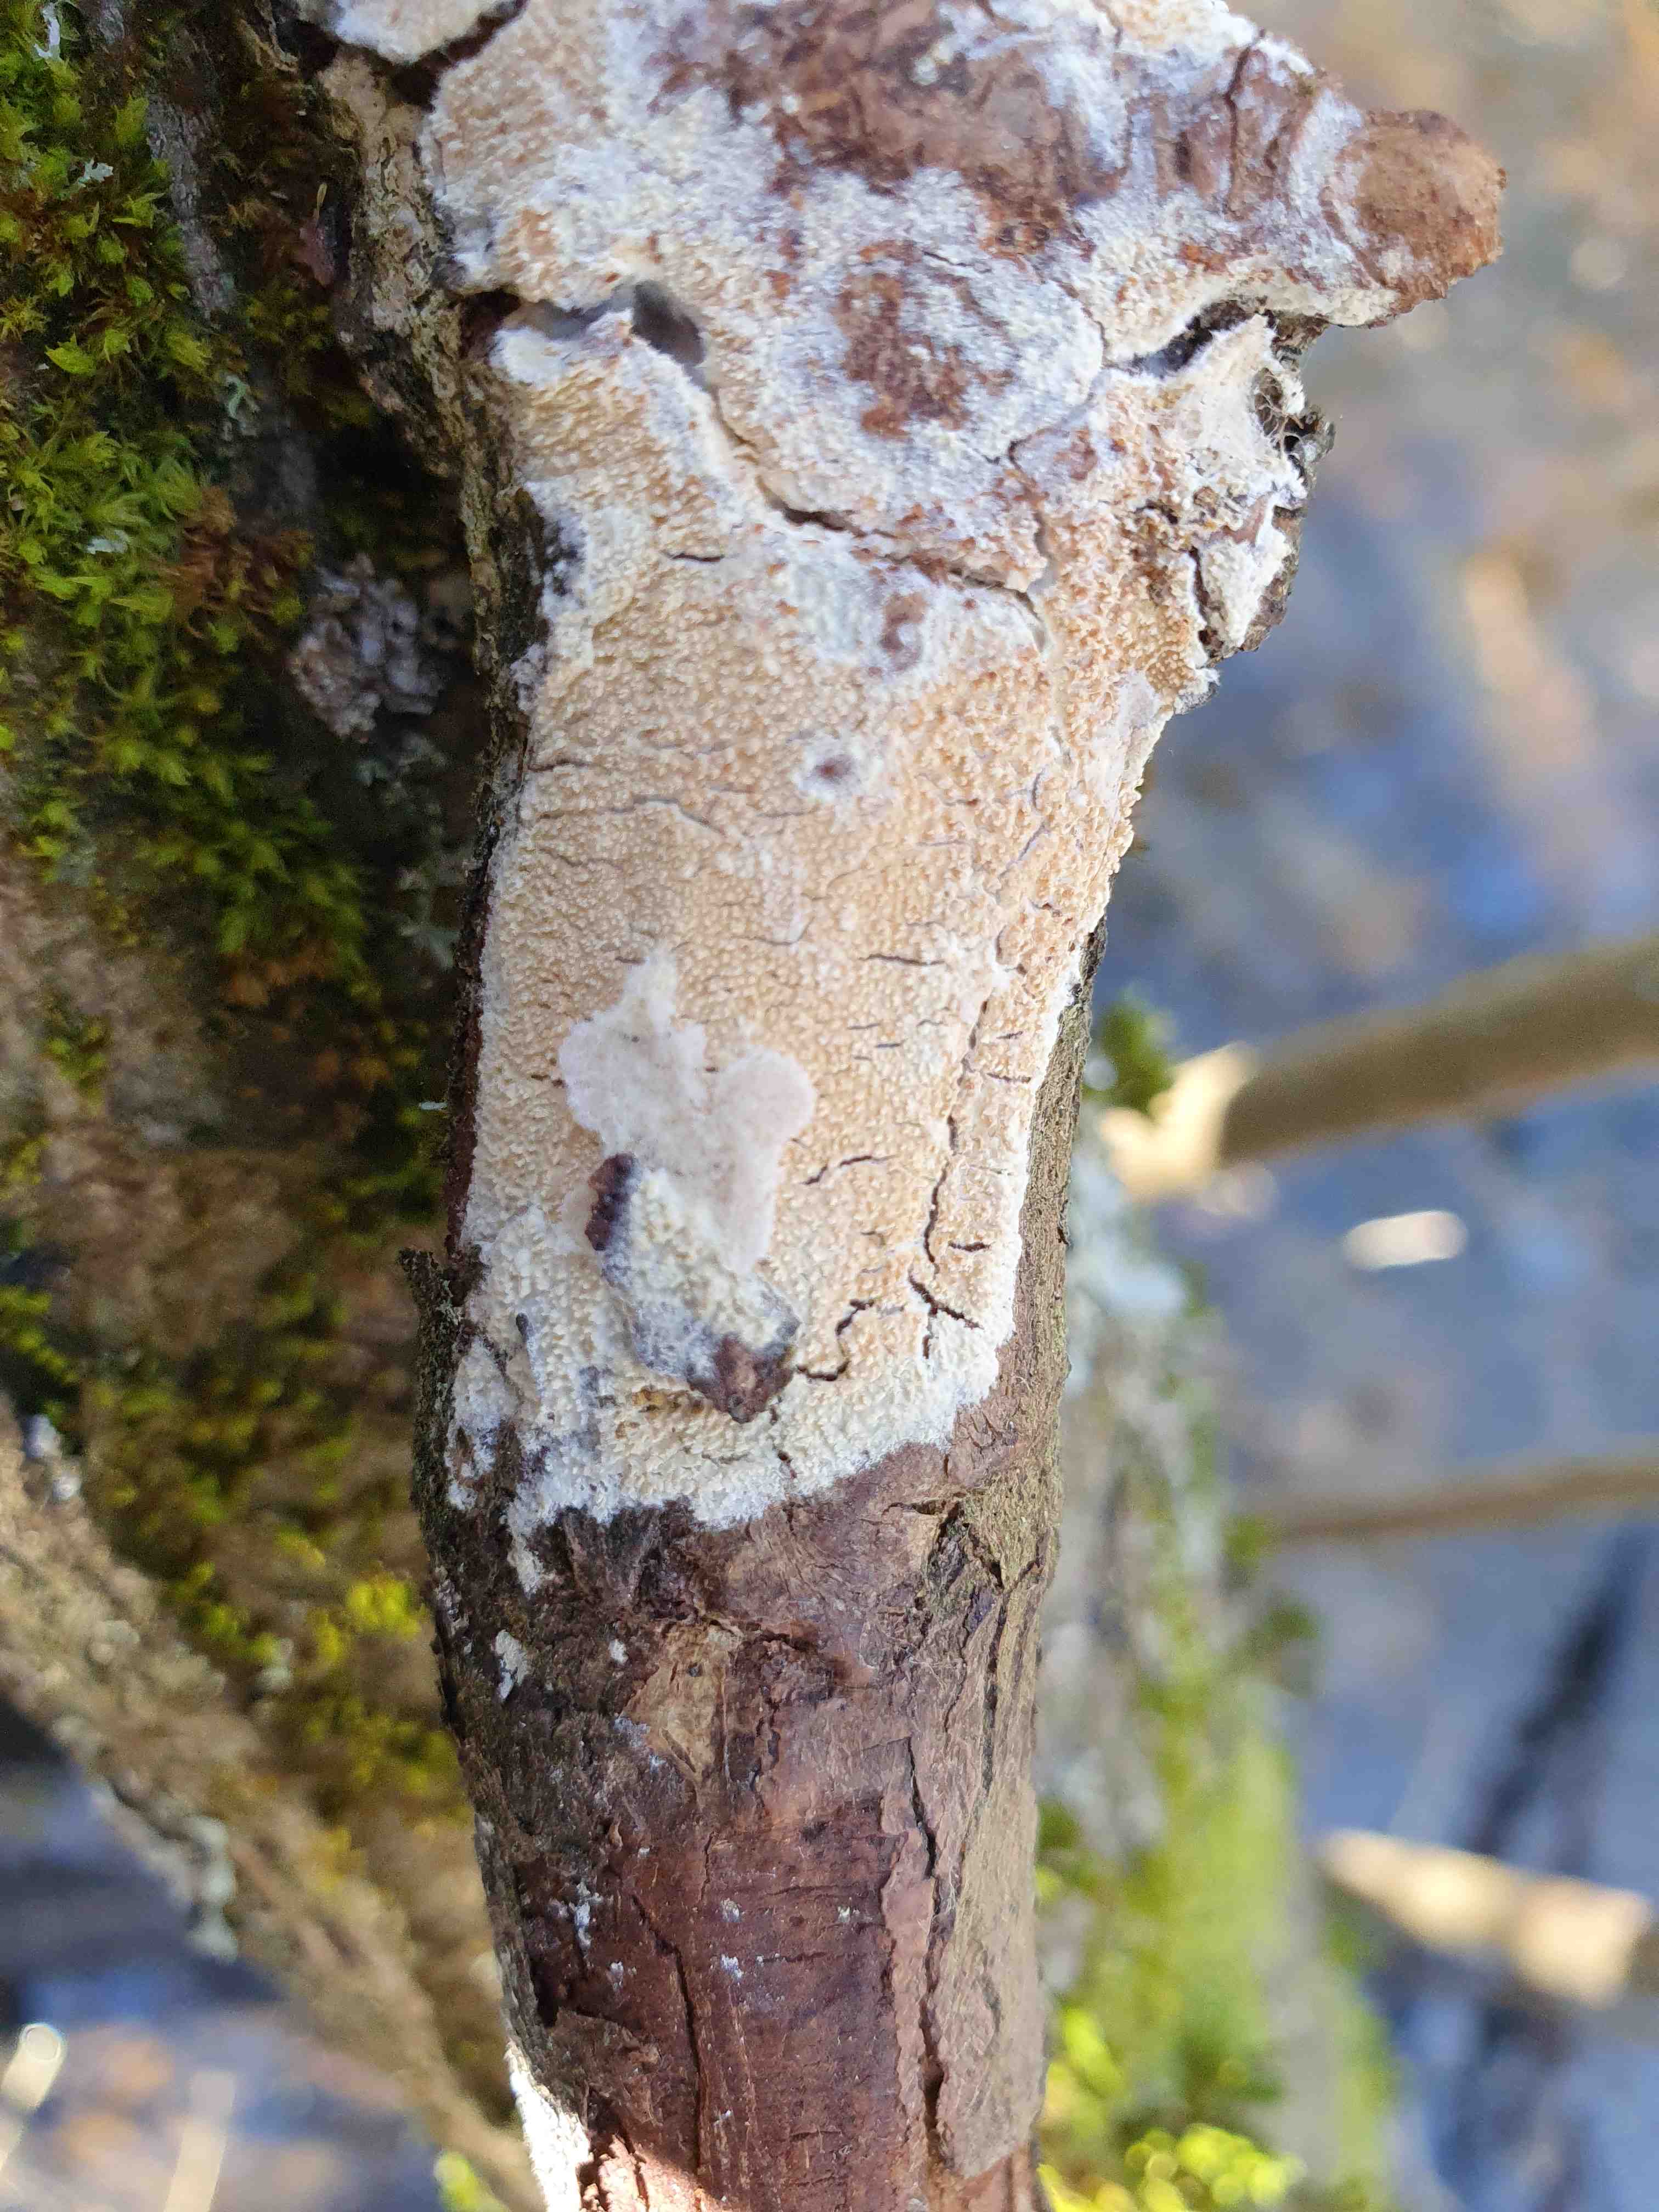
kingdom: Fungi
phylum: Basidiomycota
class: Agaricomycetes
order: Corticiales
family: Corticiaceae
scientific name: Corticiaceae
